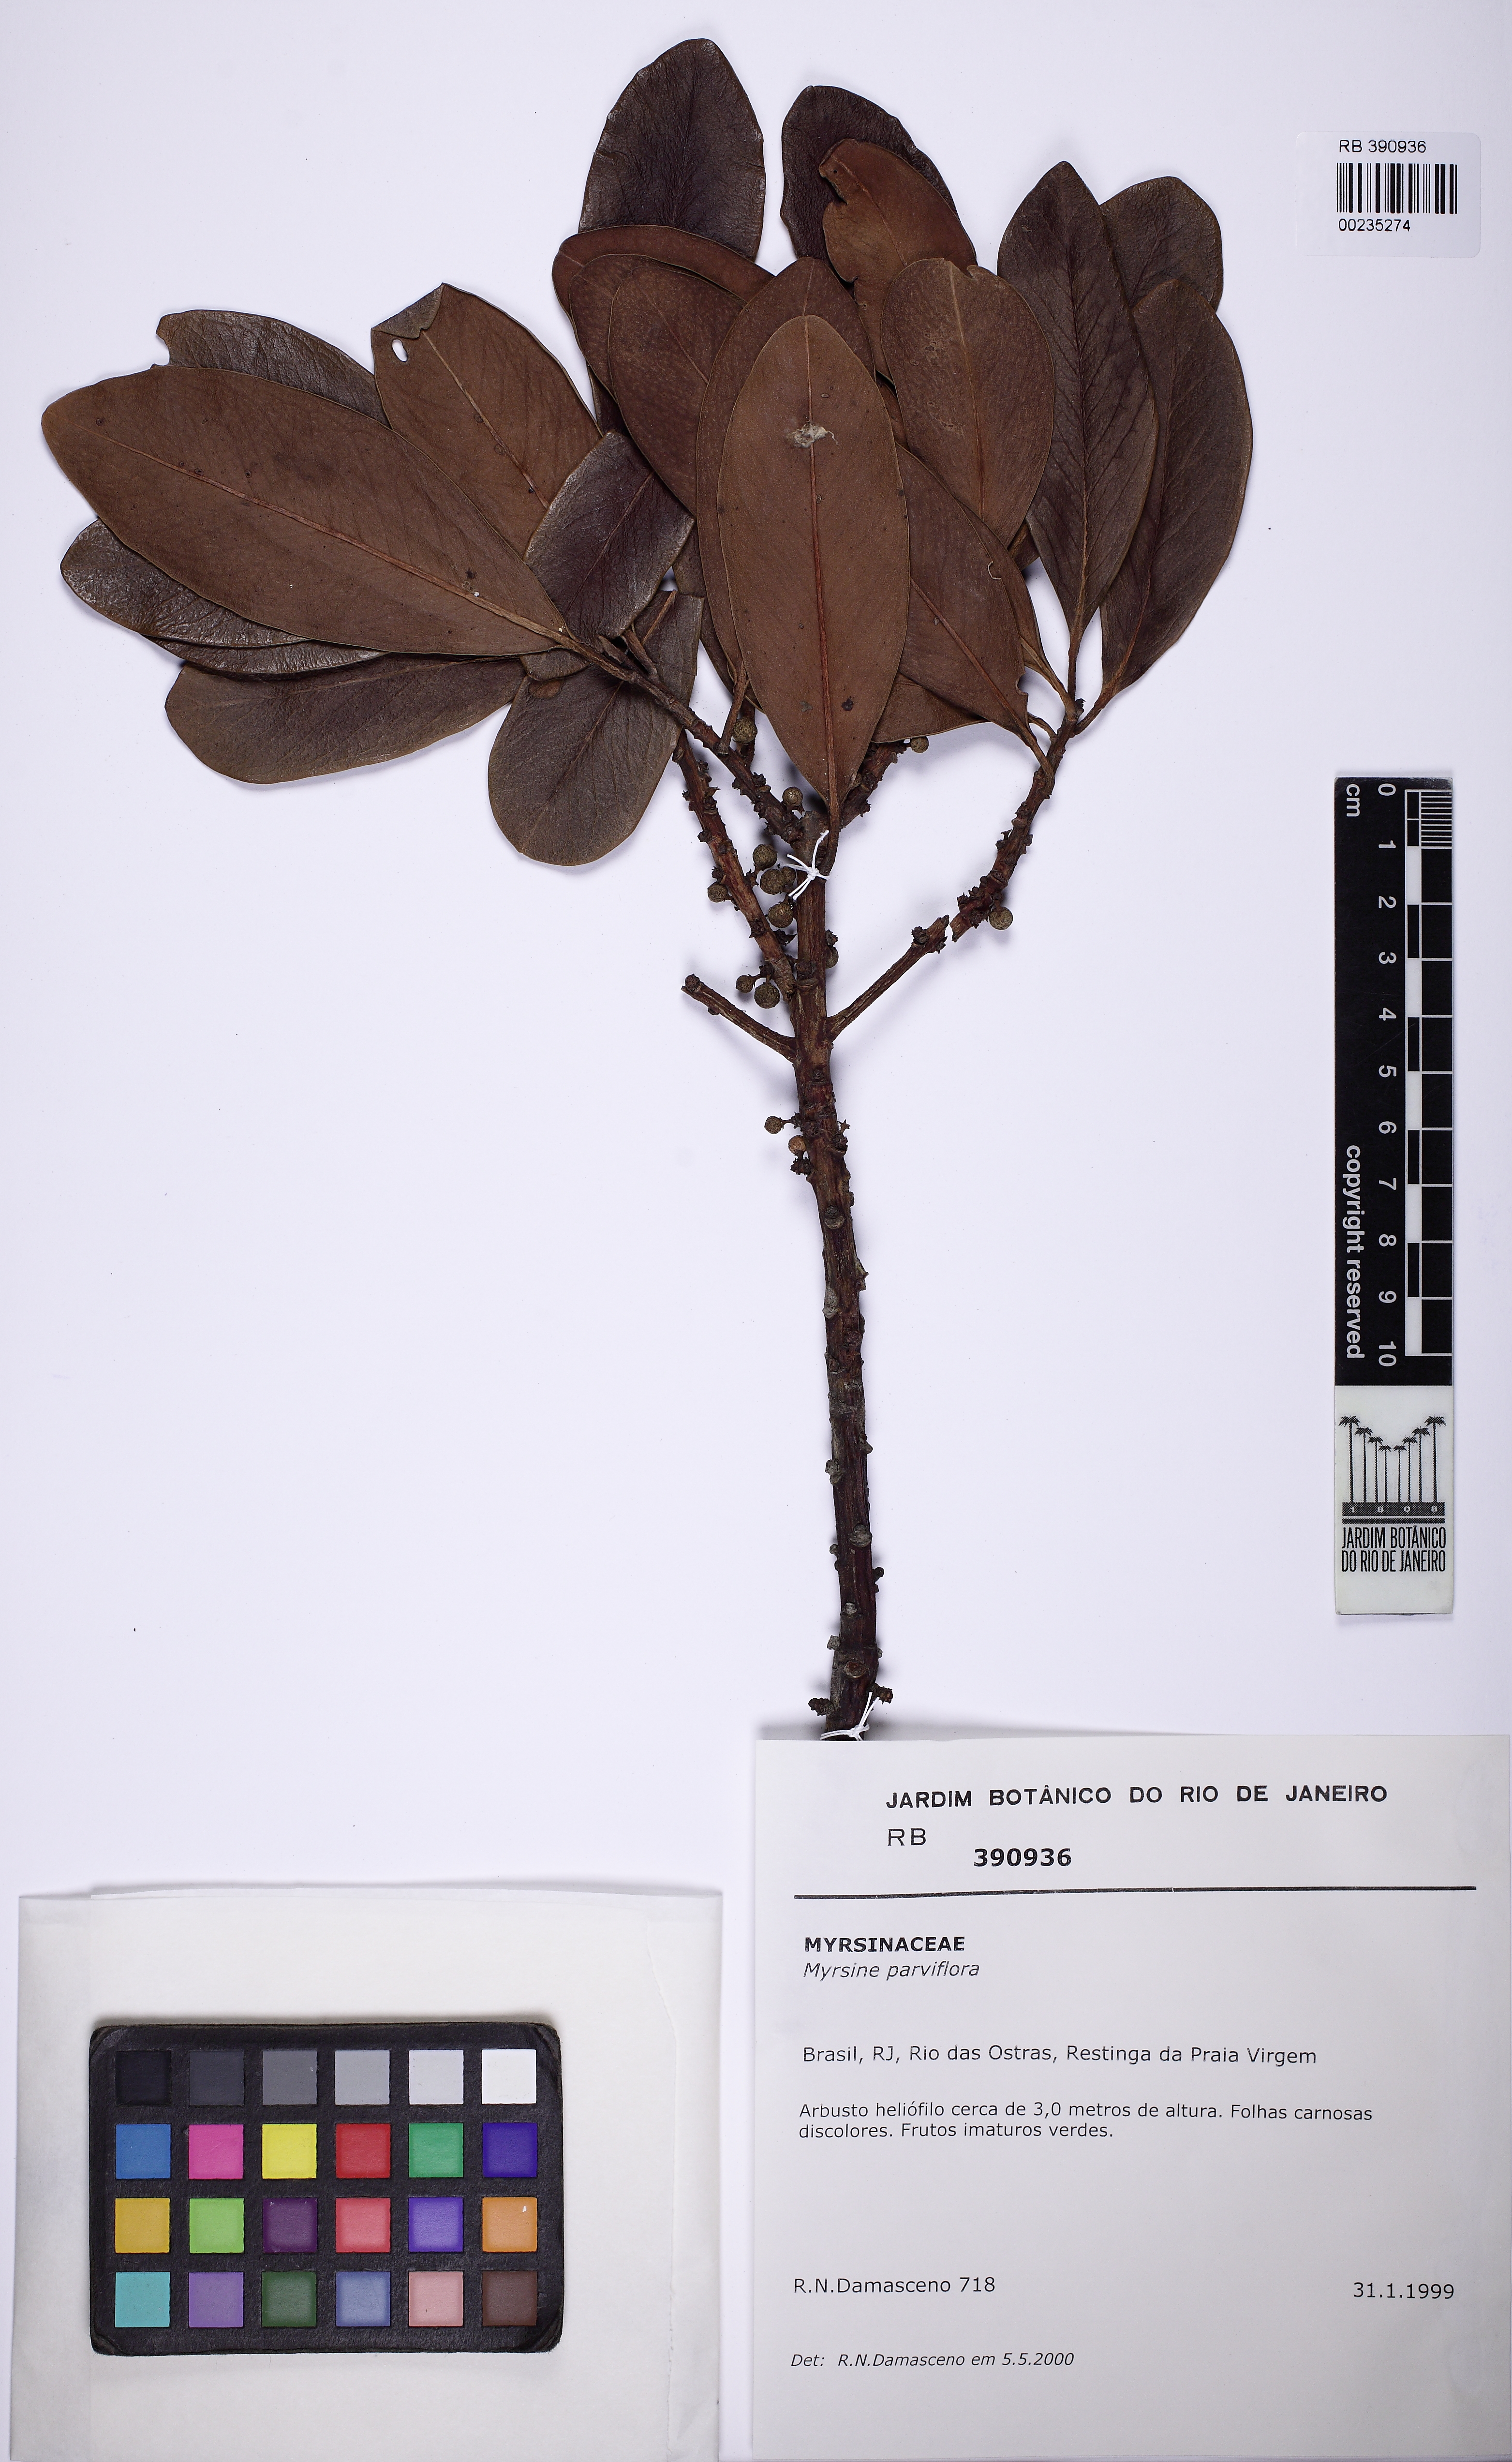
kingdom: Plantae
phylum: Tracheophyta
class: Magnoliopsida
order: Ericales
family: Primulaceae
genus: Myrsine
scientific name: Myrsine parvifolia
